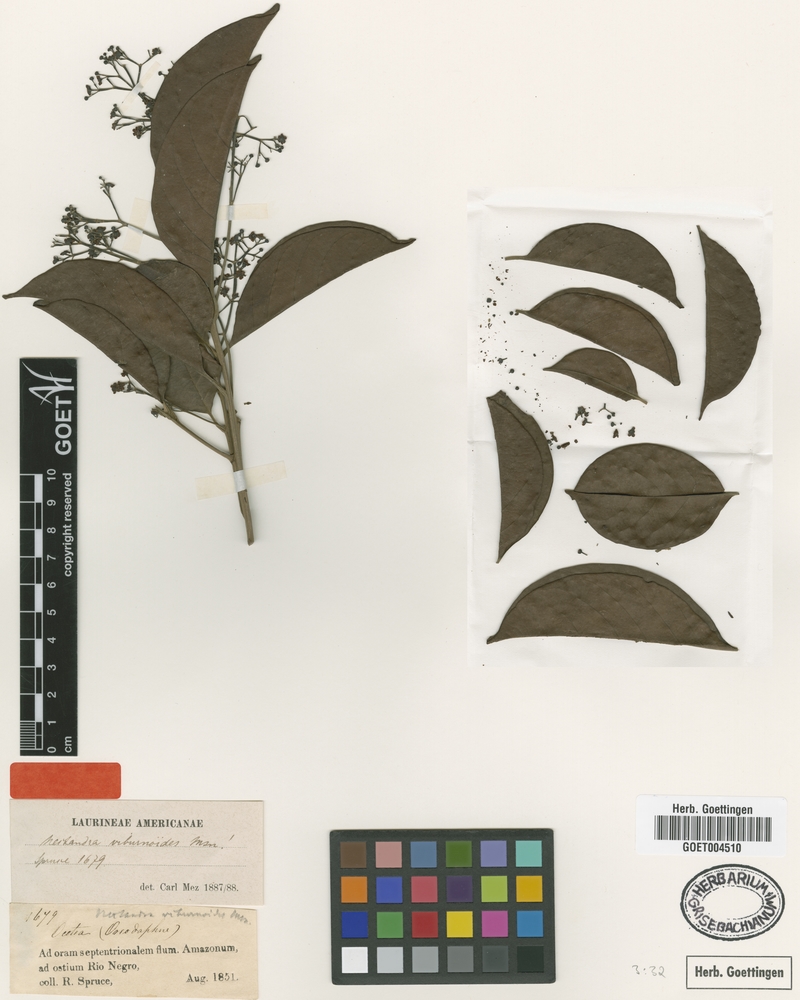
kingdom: Plantae
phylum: Tracheophyta
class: Magnoliopsida
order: Laurales
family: Lauraceae
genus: Nectandra
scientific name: Nectandra viburnoides
